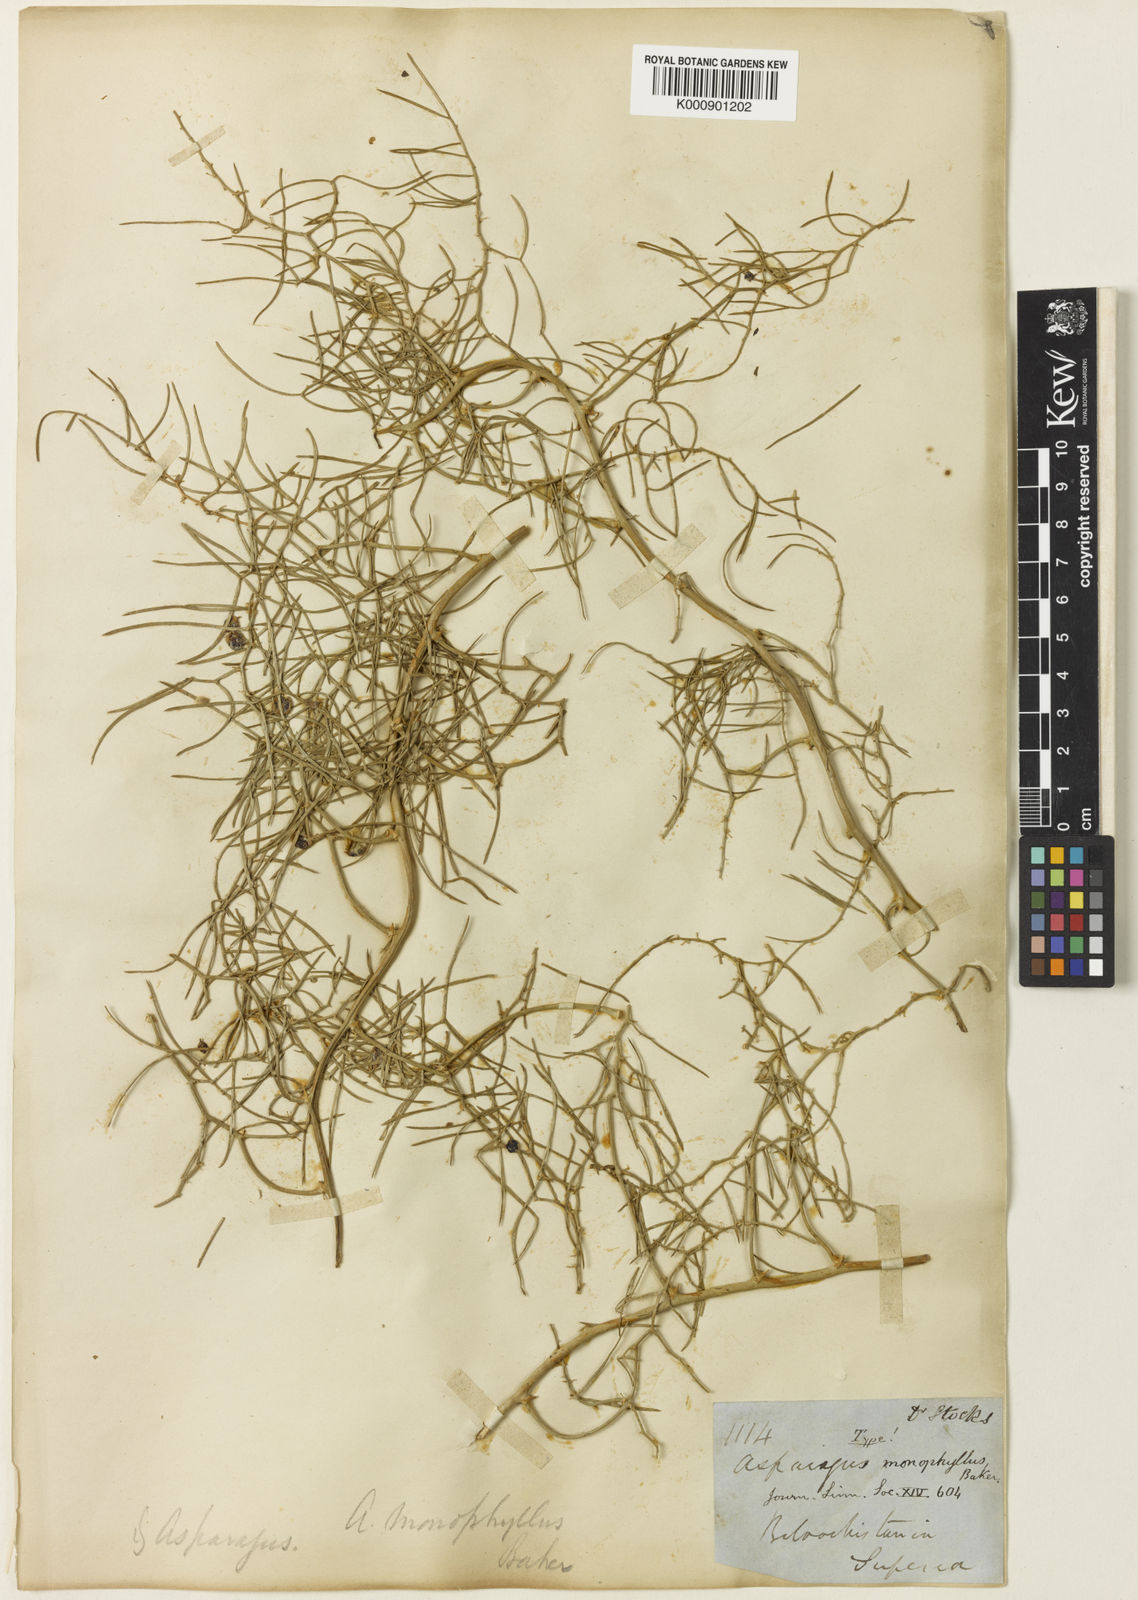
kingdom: Plantae
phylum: Tracheophyta
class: Liliopsida
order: Asparagales
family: Asparagaceae
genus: Asparagus
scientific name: Asparagus monophyllus
